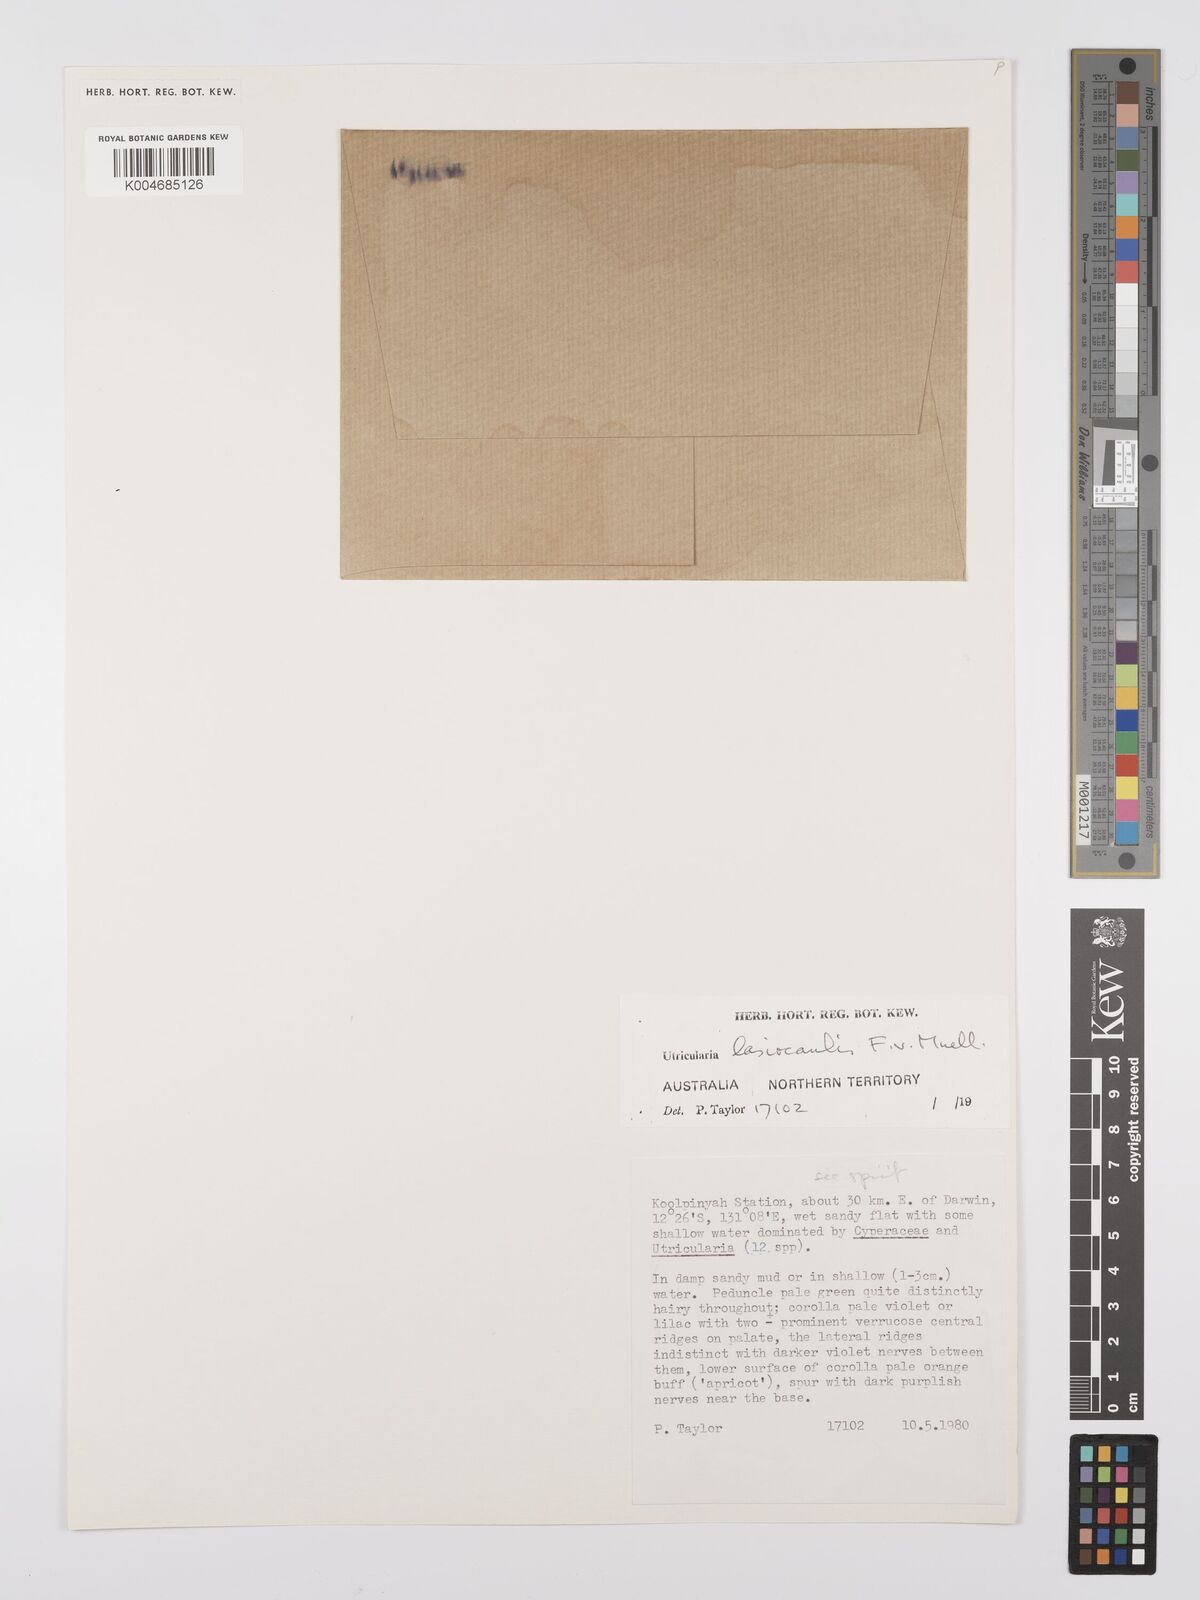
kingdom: Plantae
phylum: Tracheophyta
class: Magnoliopsida
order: Lamiales
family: Lentibulariaceae
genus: Utricularia
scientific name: Utricularia lasiocaulis
